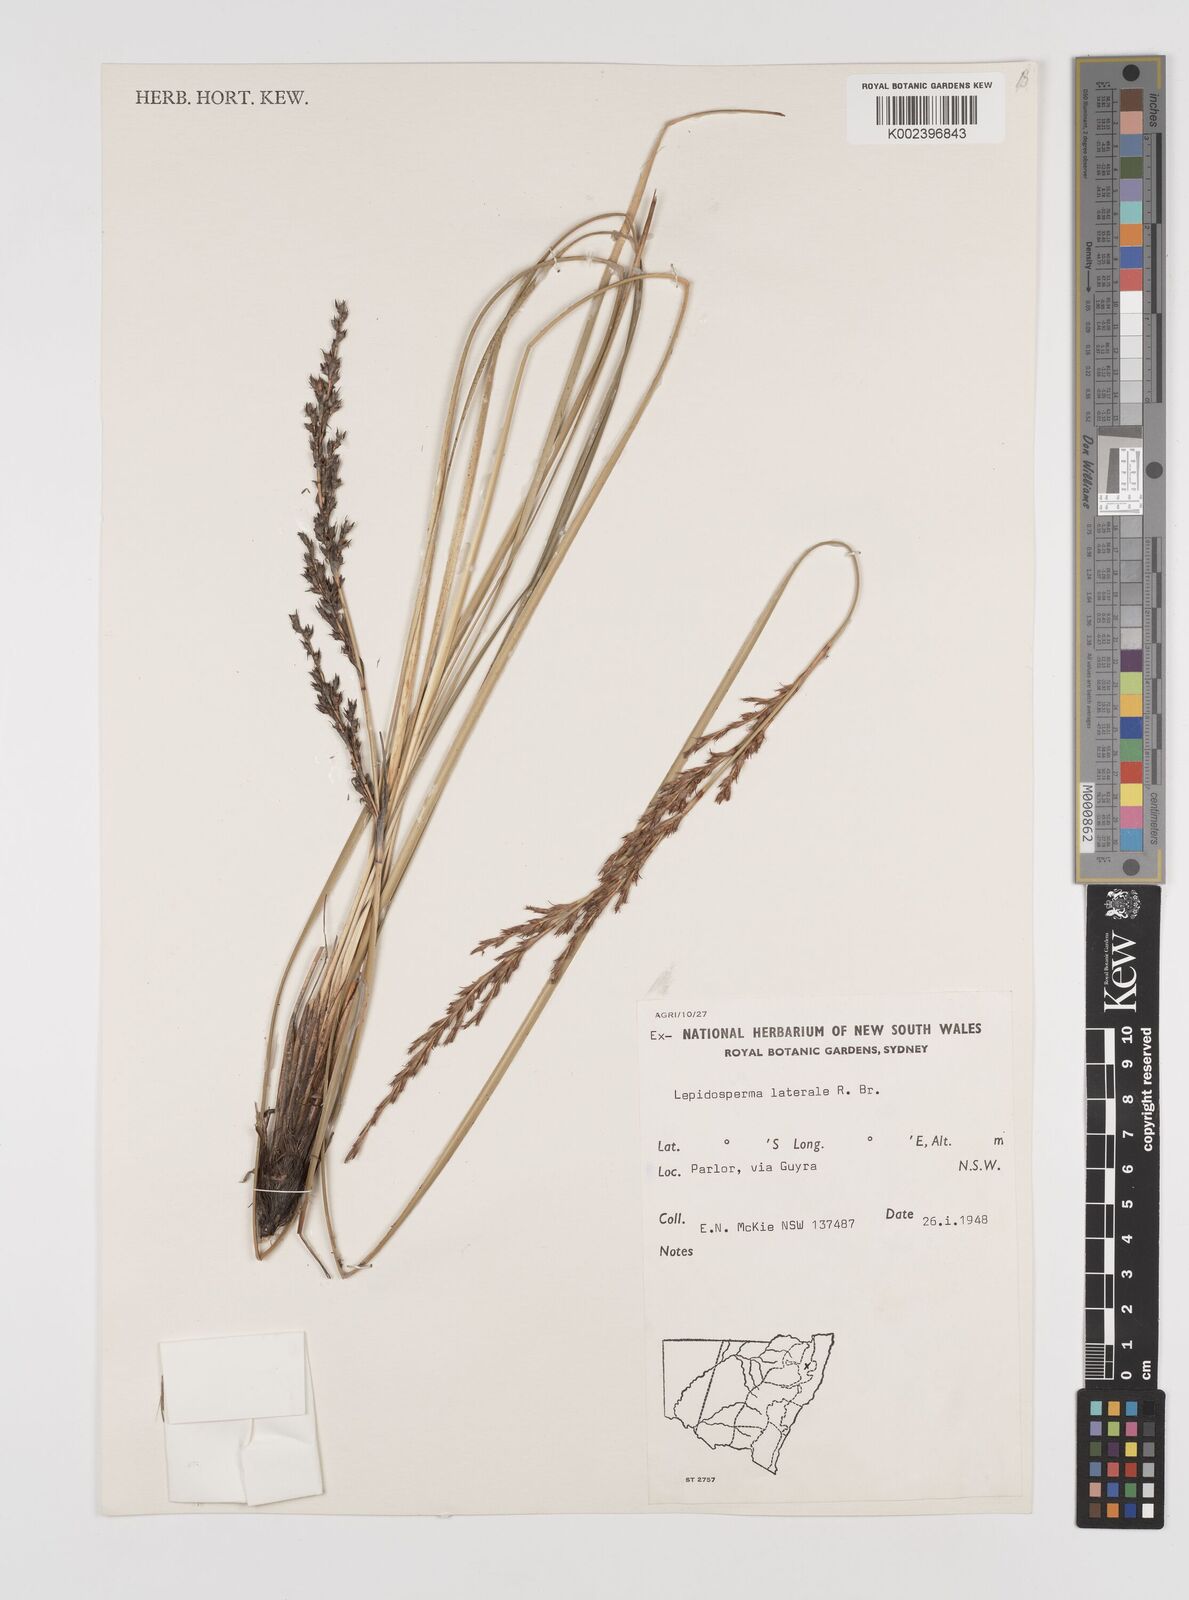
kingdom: Plantae
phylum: Tracheophyta
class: Liliopsida
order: Poales
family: Cyperaceae
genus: Lepidosperma
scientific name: Lepidosperma laterale
